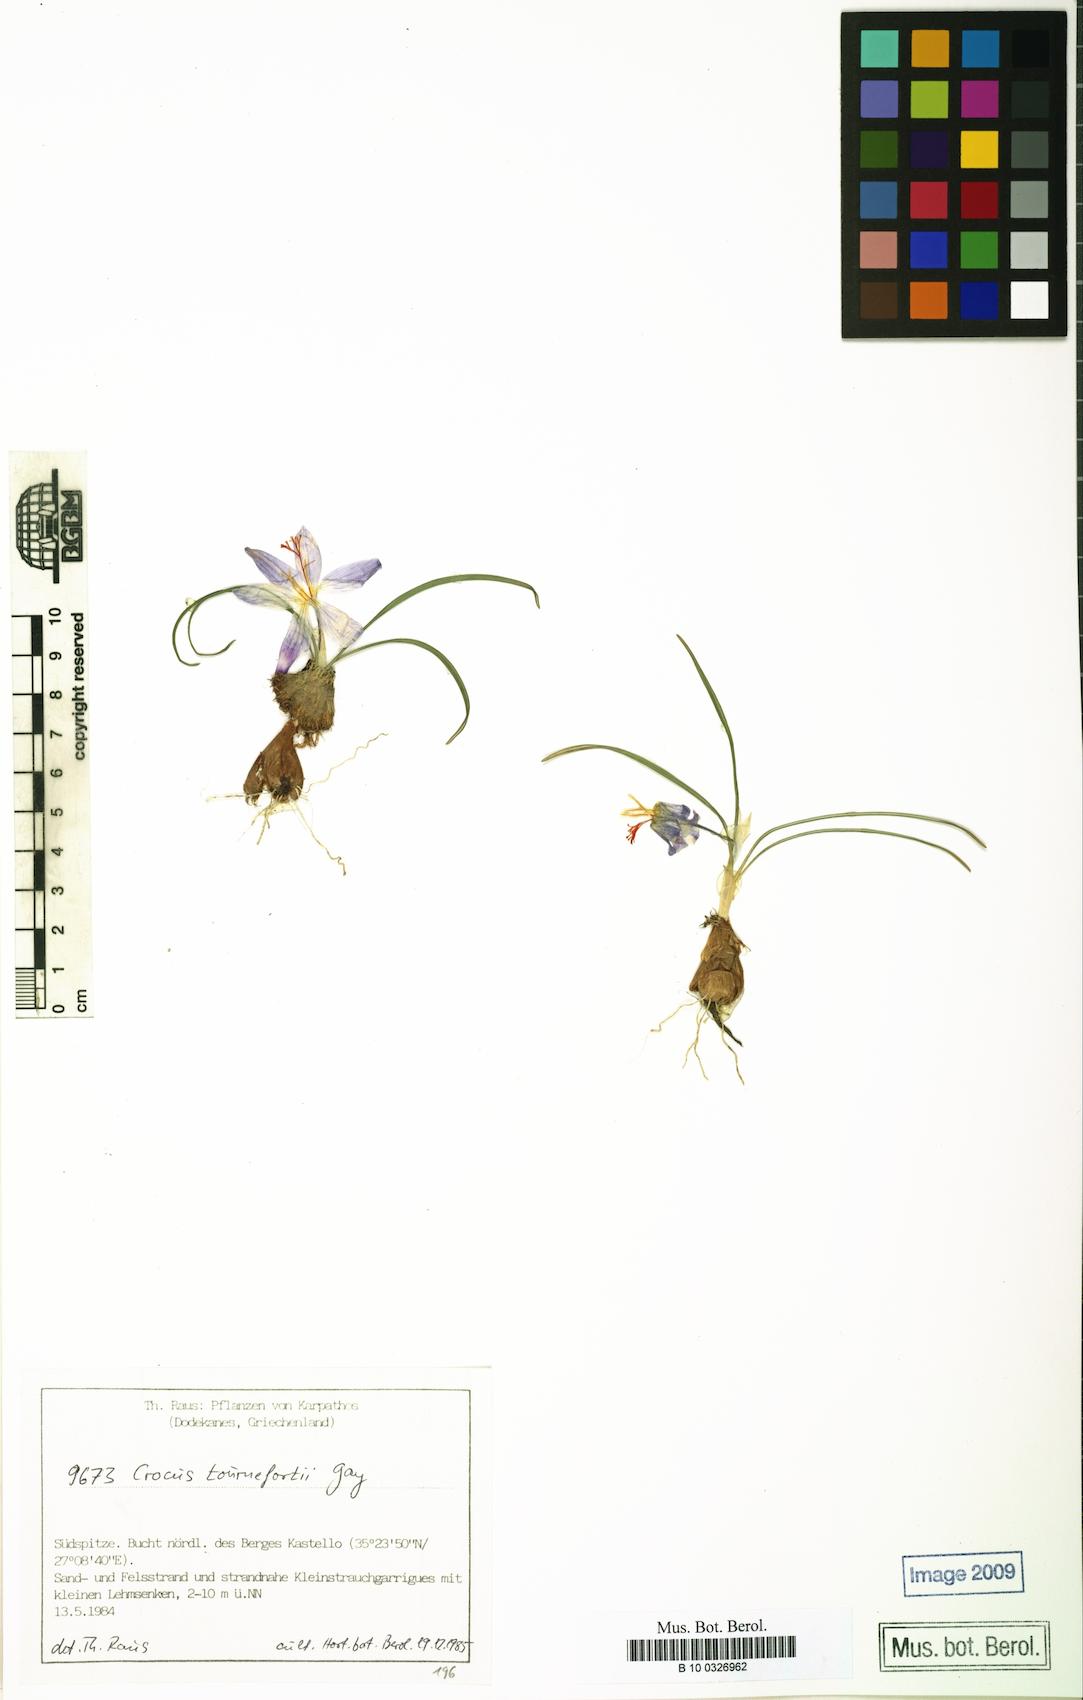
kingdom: Plantae
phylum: Tracheophyta
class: Liliopsida
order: Asparagales
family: Iridaceae
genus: Crocus
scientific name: Crocus tournefortii
